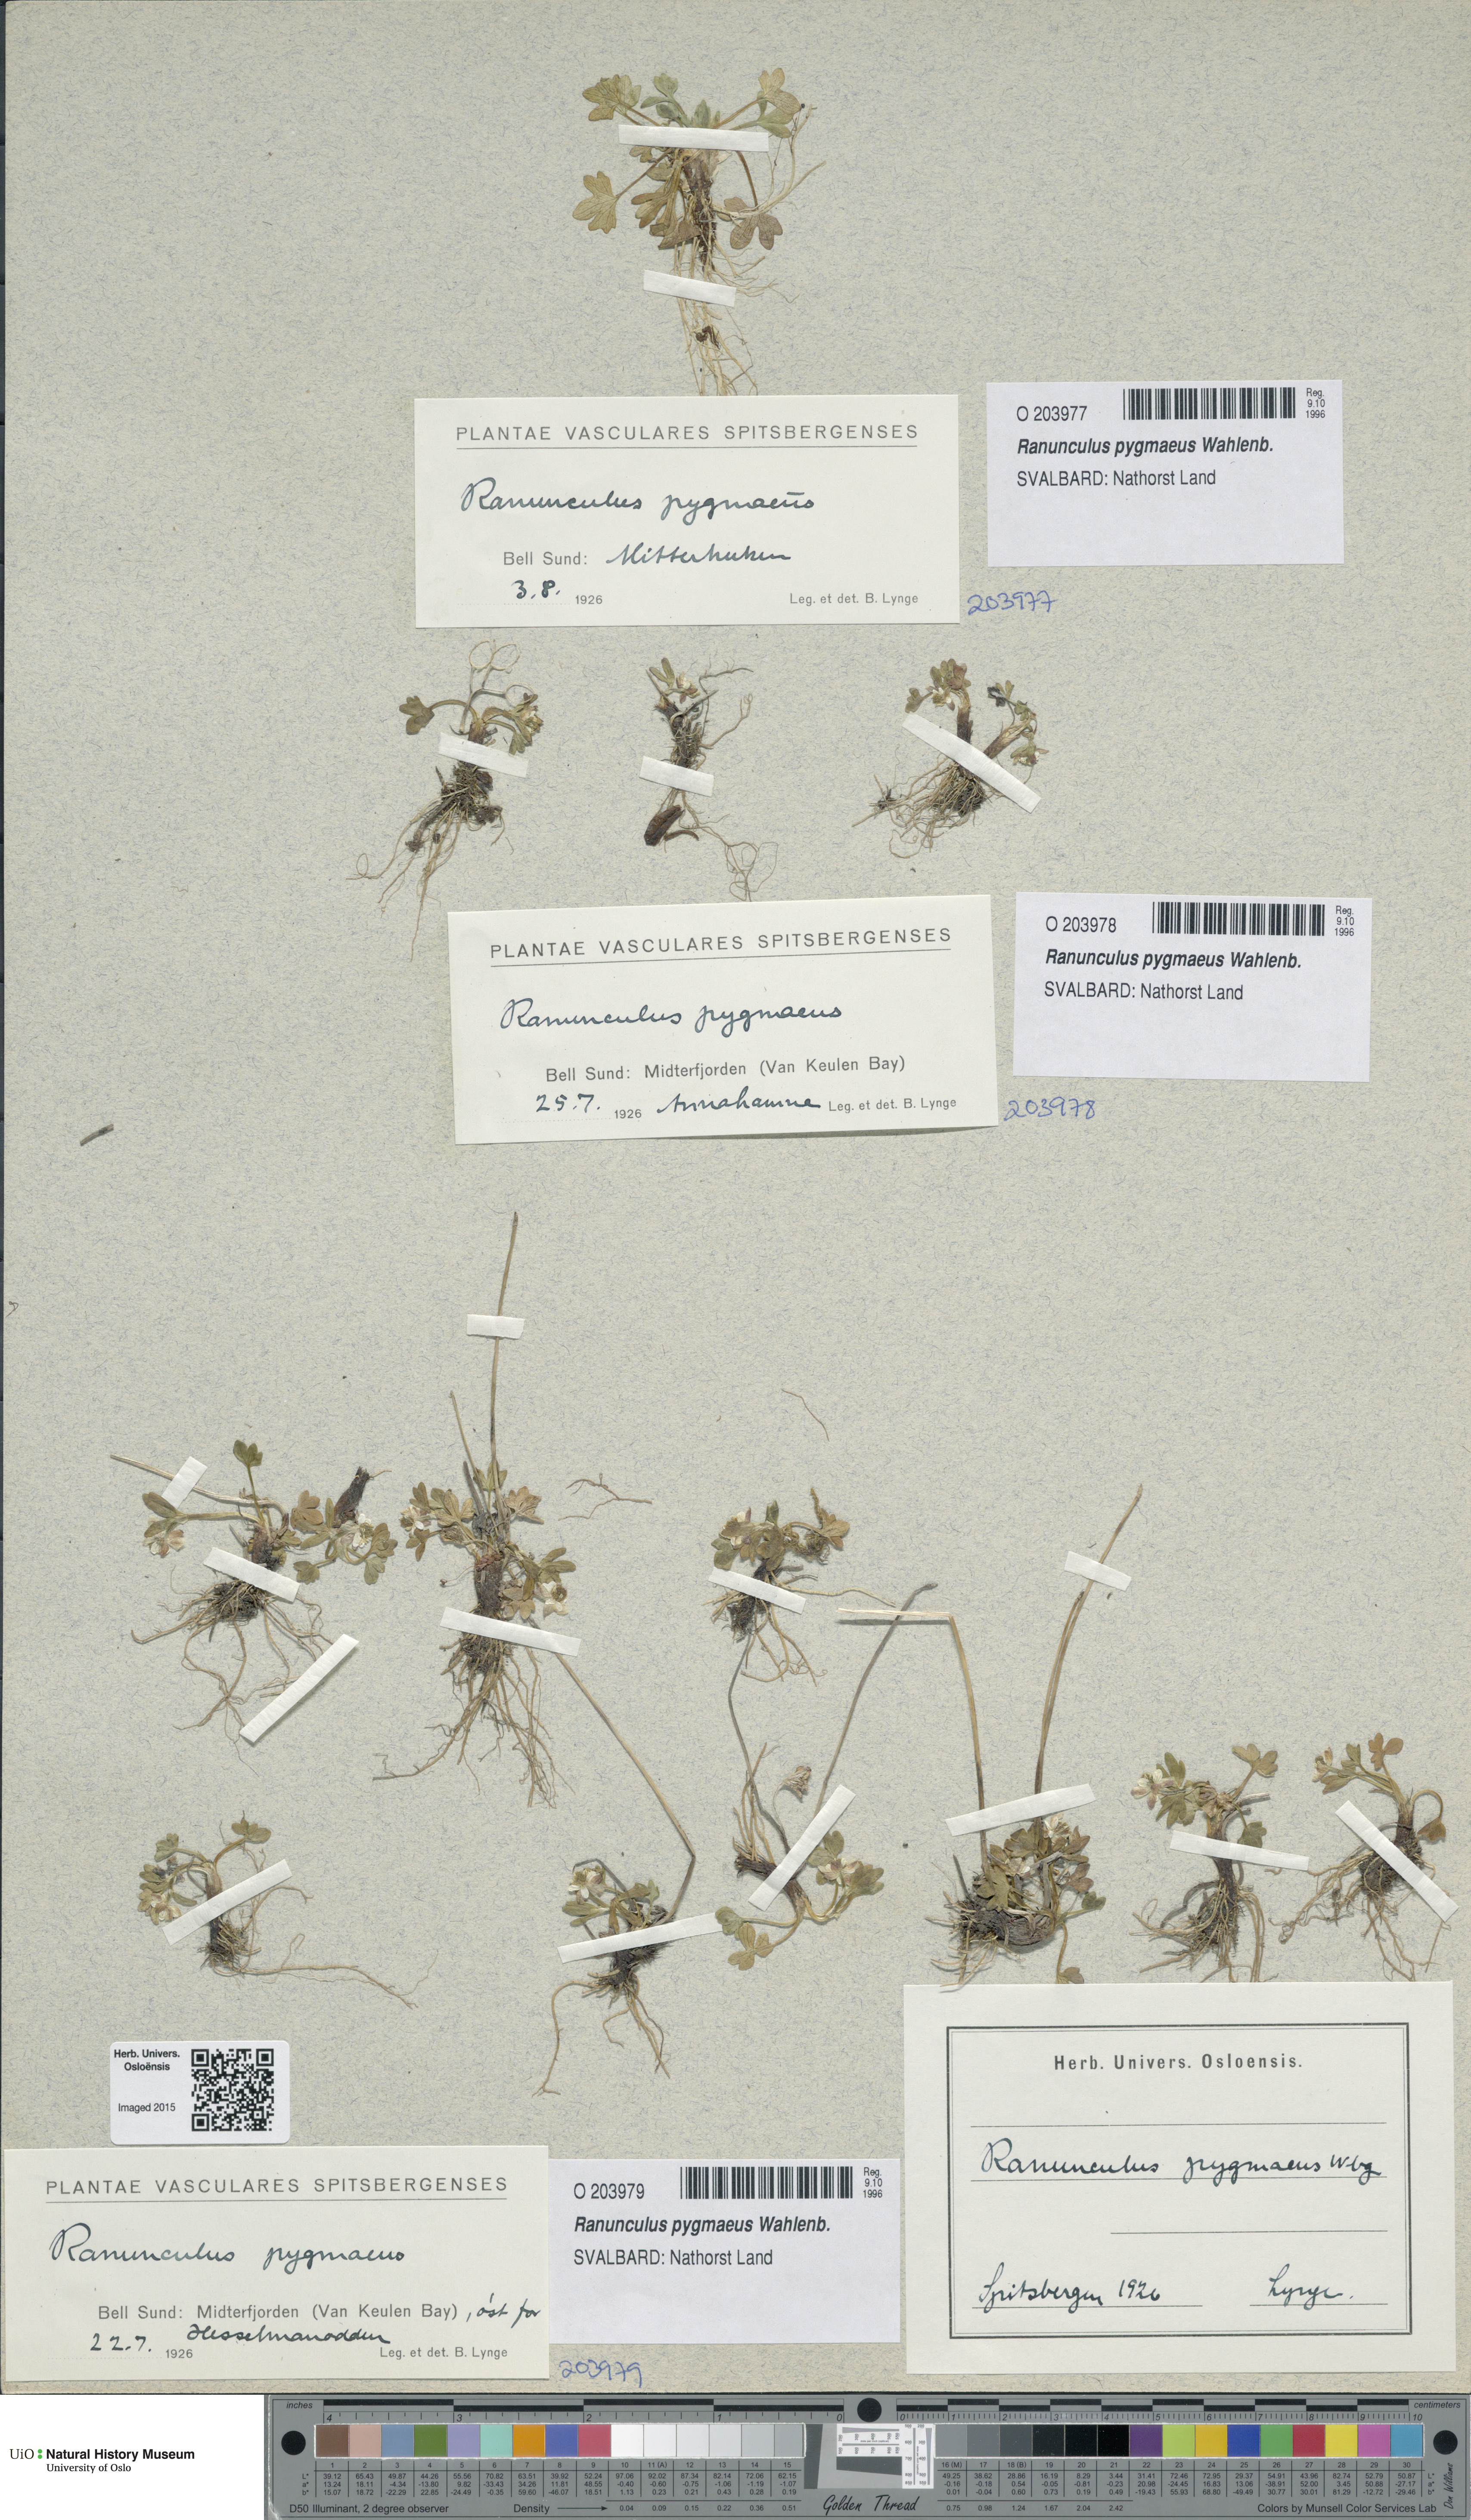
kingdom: Plantae
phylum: Tracheophyta
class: Magnoliopsida
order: Ranunculales
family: Ranunculaceae
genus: Ranunculus
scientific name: Ranunculus pygmaeus
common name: Dwarf buttercup
